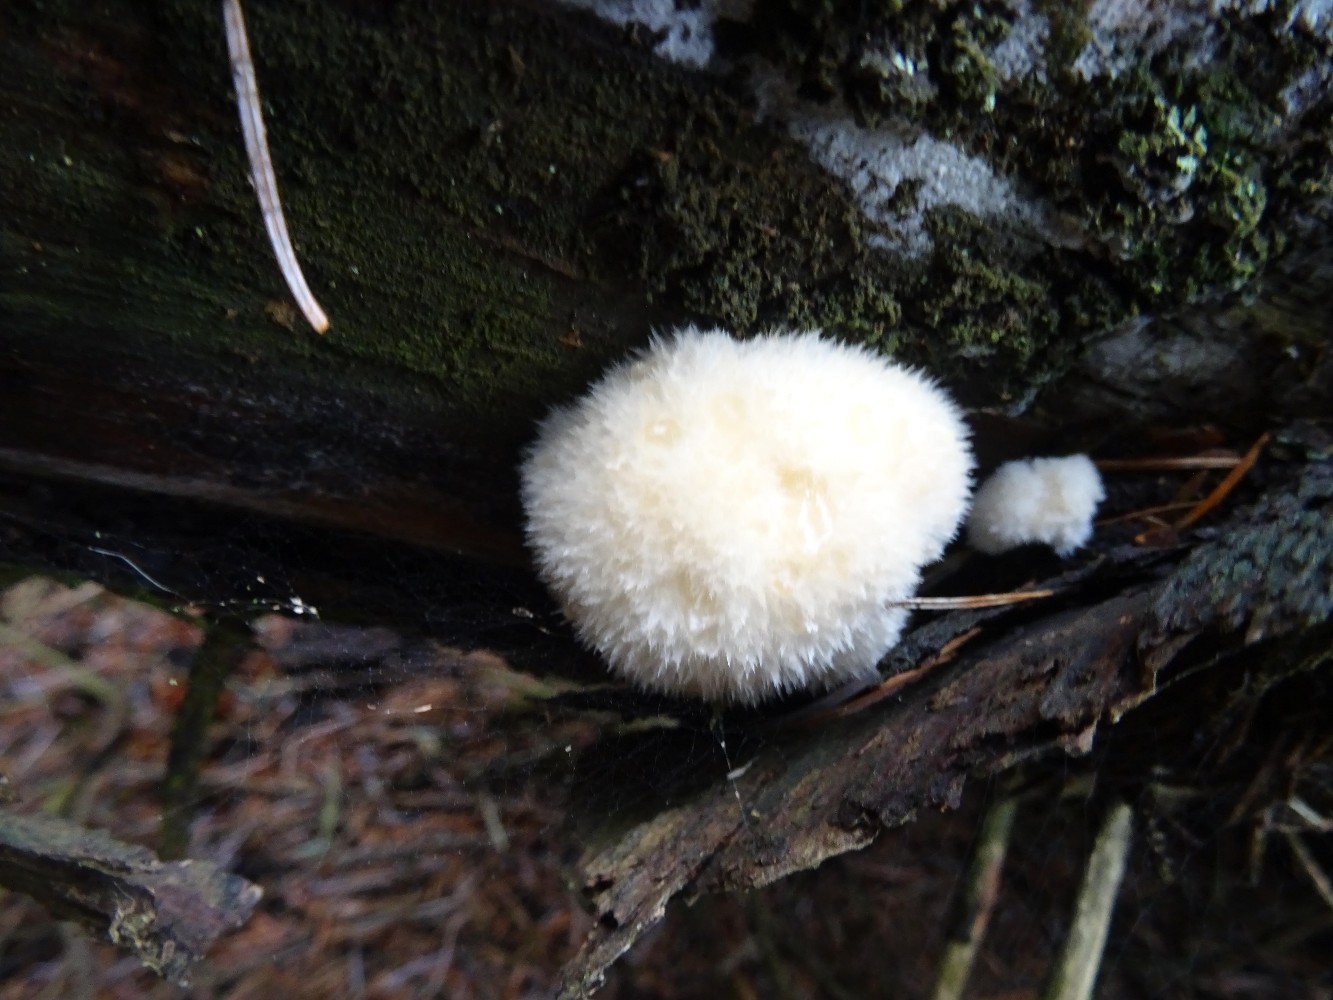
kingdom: Fungi
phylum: Basidiomycota
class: Agaricomycetes
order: Polyporales
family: Dacryobolaceae
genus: Postia
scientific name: Postia ptychogaster
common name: støvende kødporesvamp
